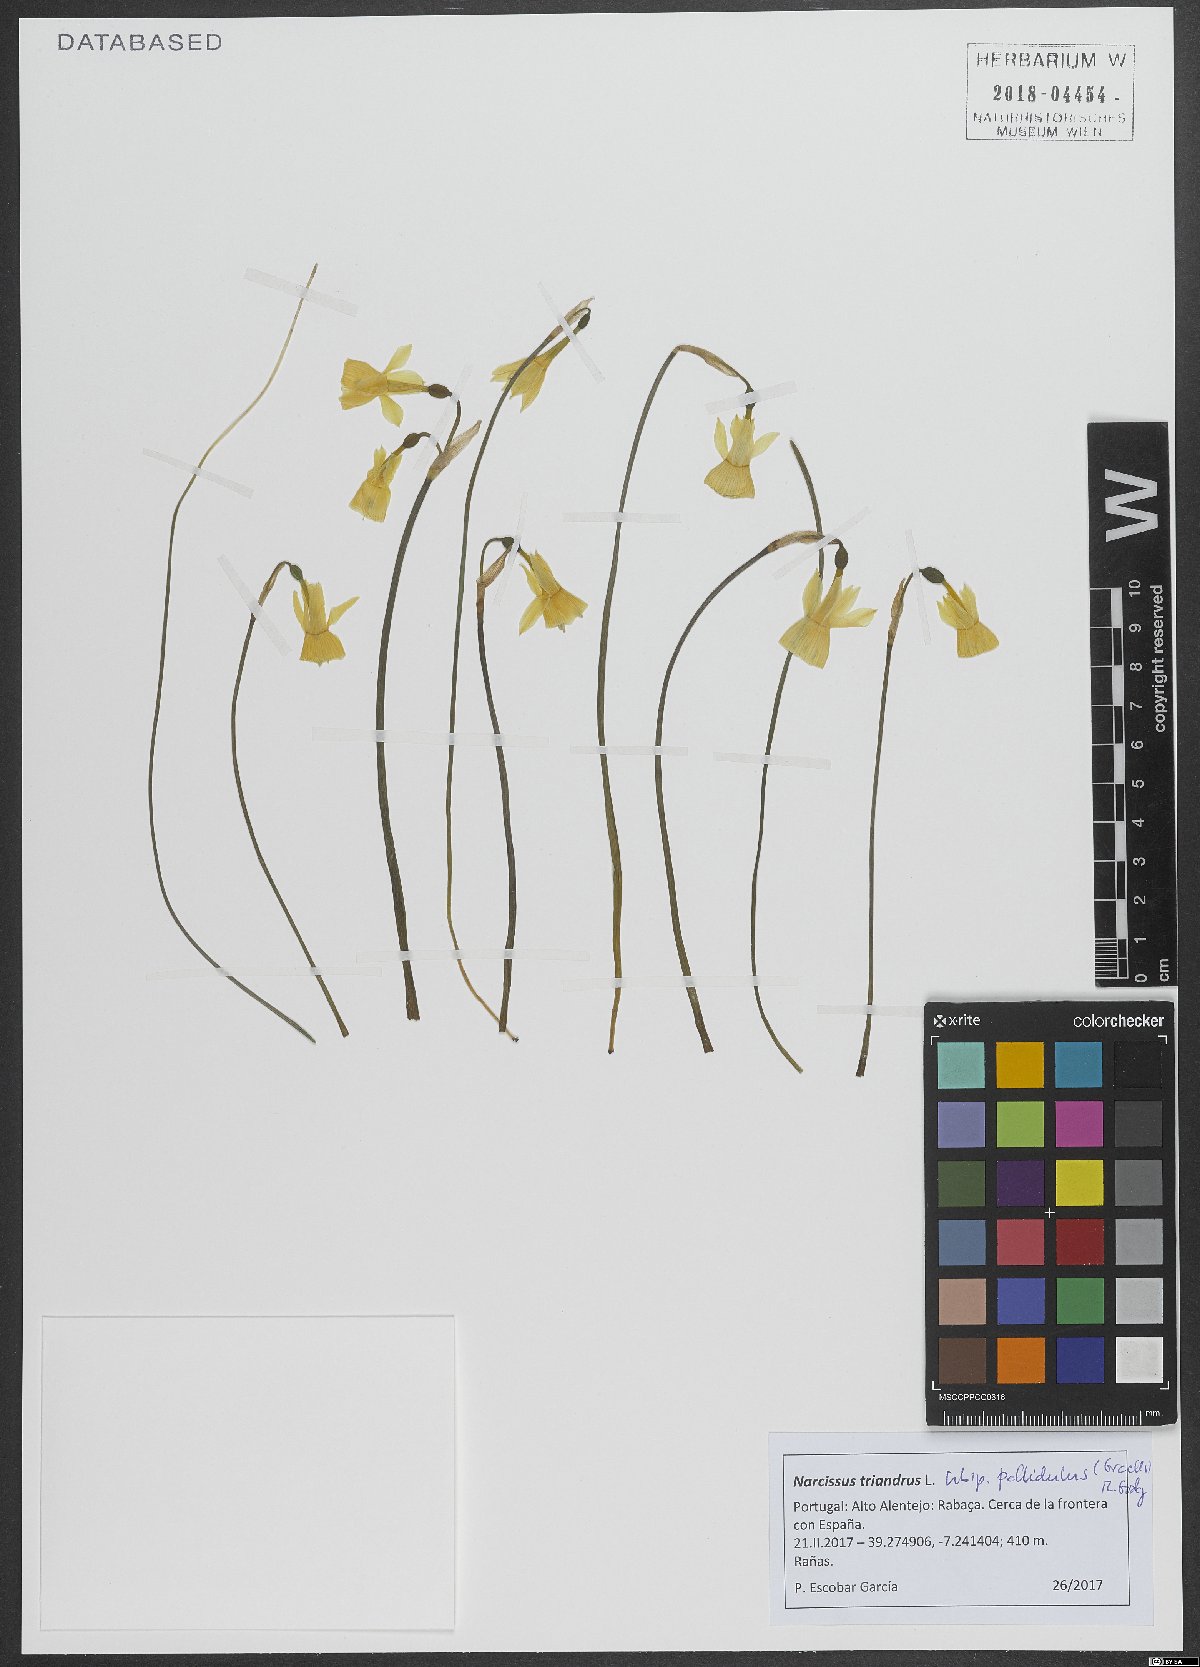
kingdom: Plantae
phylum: Tracheophyta
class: Liliopsida
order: Asparagales
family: Amaryllidaceae
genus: Narcissus
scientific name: Narcissus triandrus
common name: Angel's-tears
